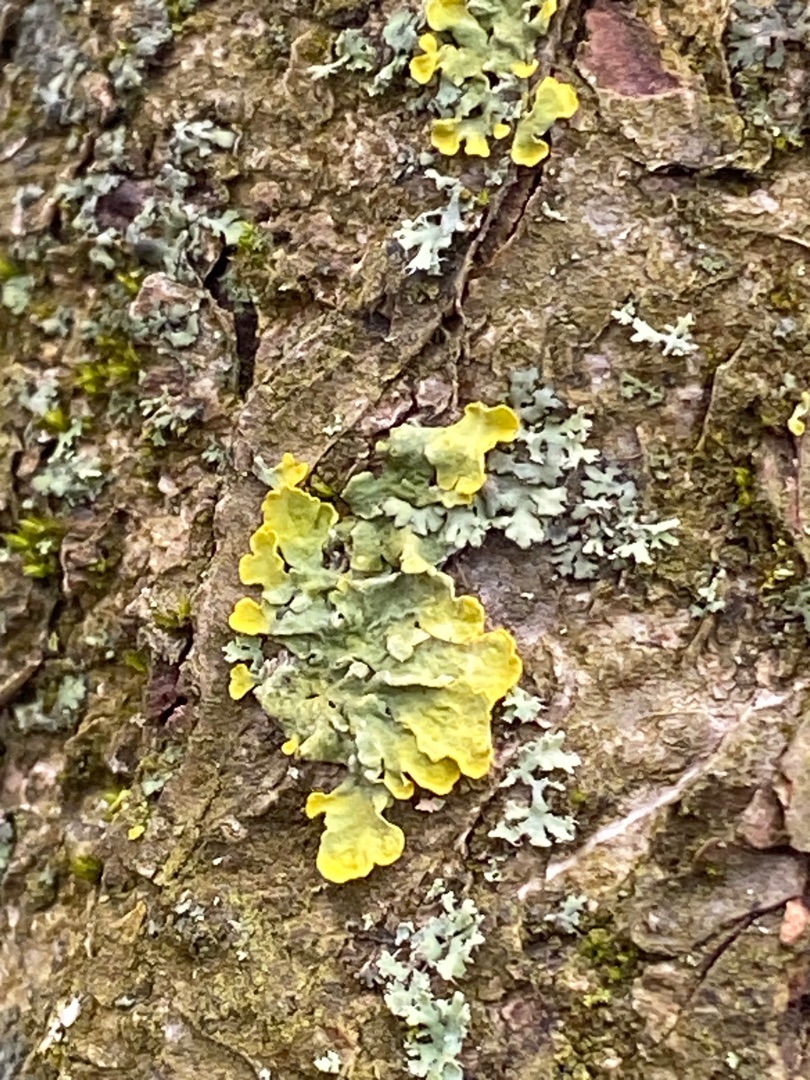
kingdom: Fungi
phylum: Ascomycota
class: Lecanoromycetes
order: Teloschistales
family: Teloschistaceae
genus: Xanthoria
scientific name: Xanthoria parietina
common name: Almindelig væggelav
